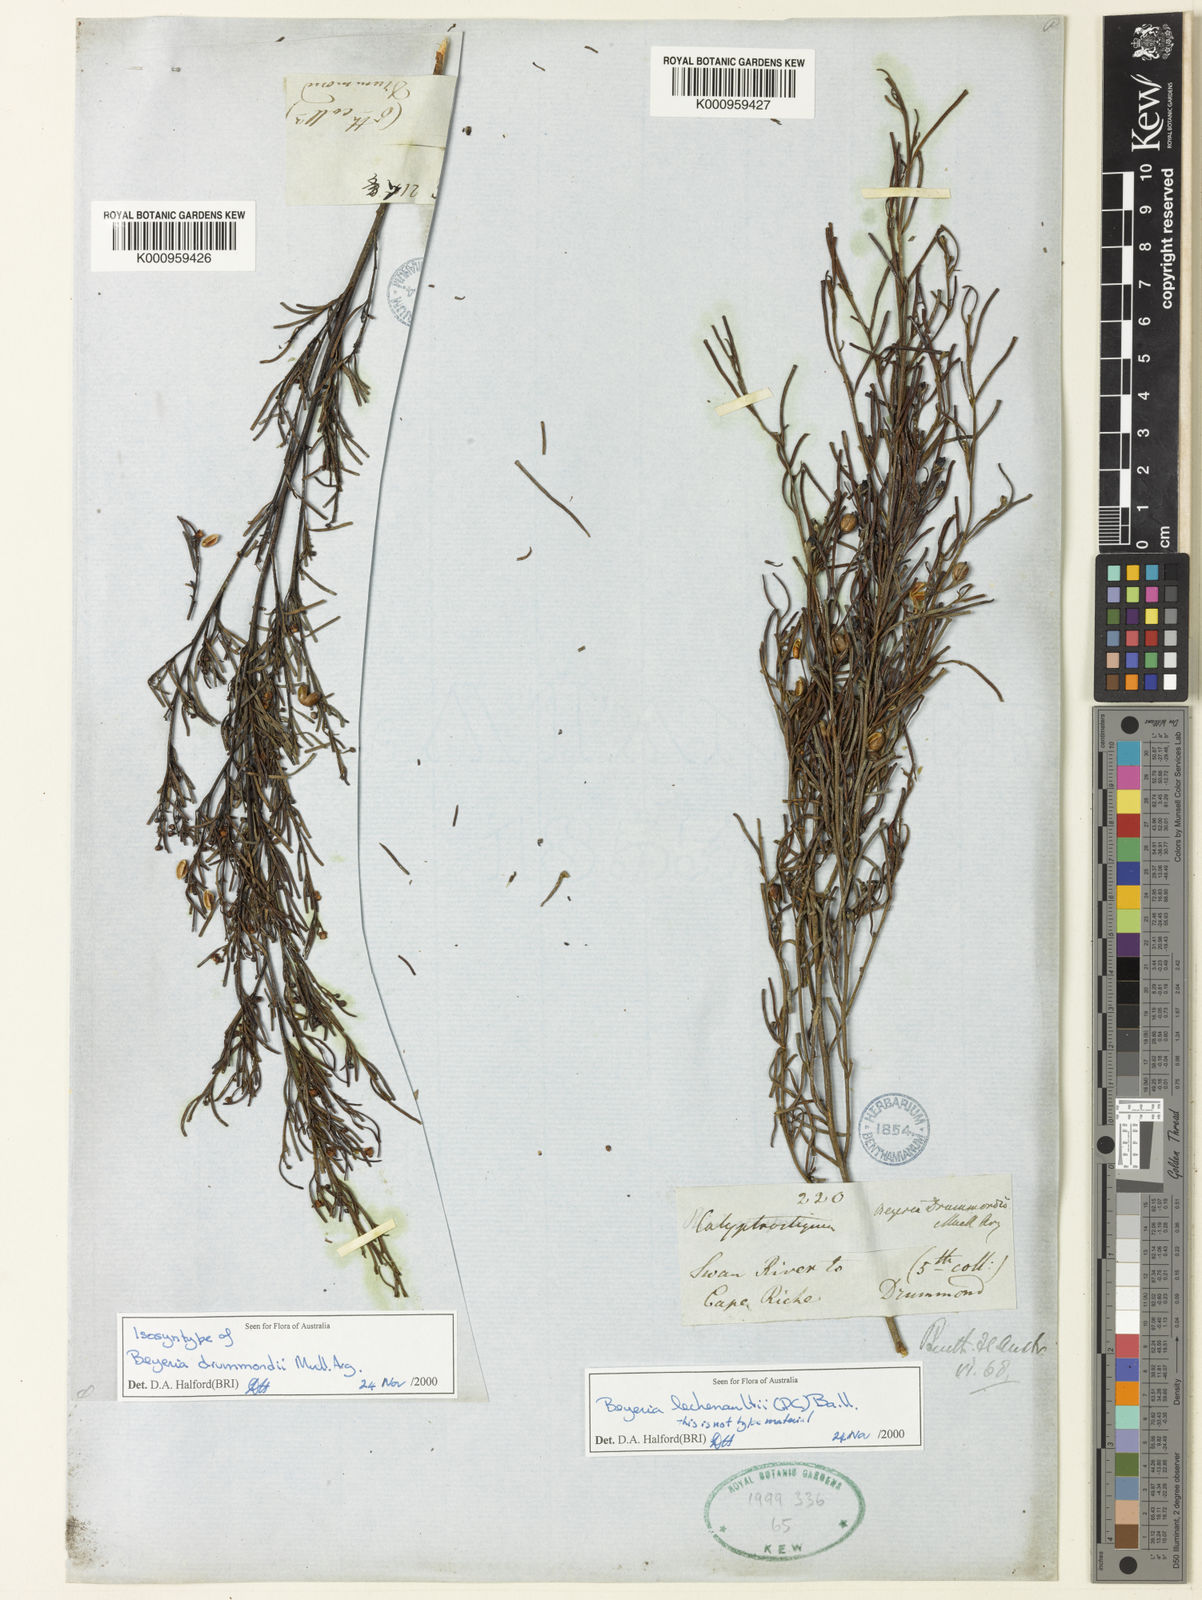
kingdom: Plantae
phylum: Tracheophyta
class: Magnoliopsida
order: Malpighiales
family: Euphorbiaceae
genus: Shonia
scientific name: Shonia tristigma
